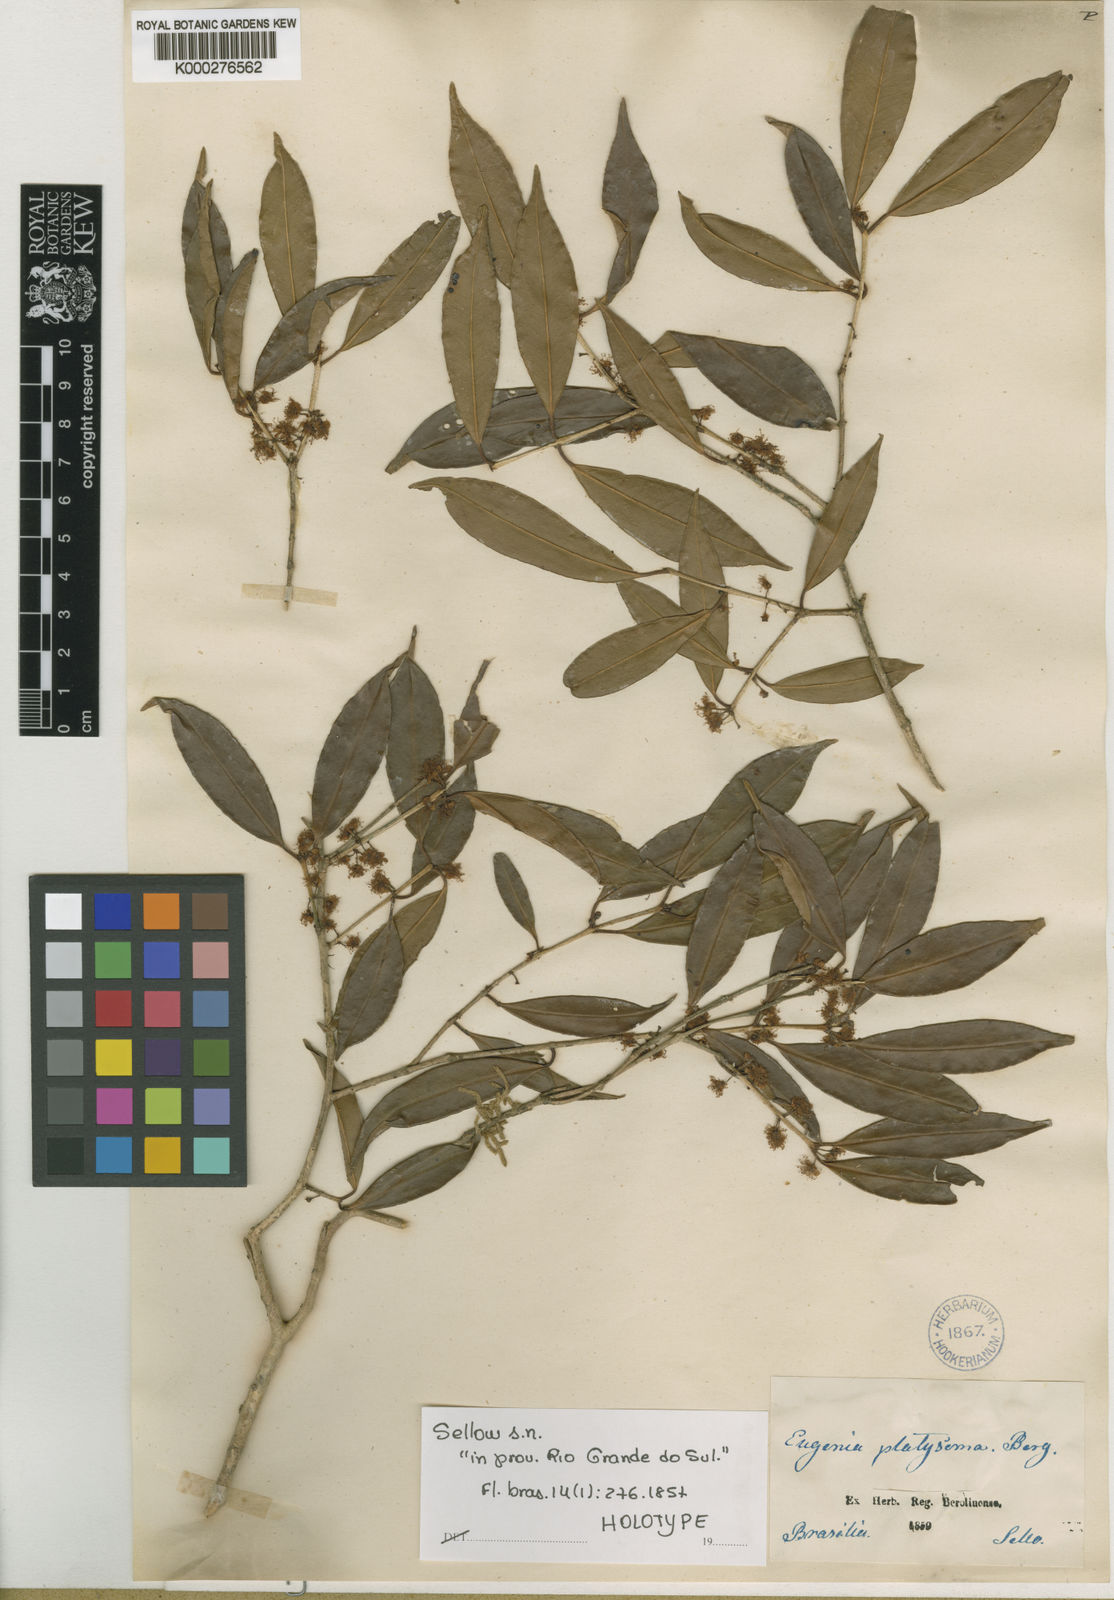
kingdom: Plantae
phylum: Tracheophyta
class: Magnoliopsida
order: Myrtales
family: Myrtaceae
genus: Eugenia
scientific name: Eugenia platysema
